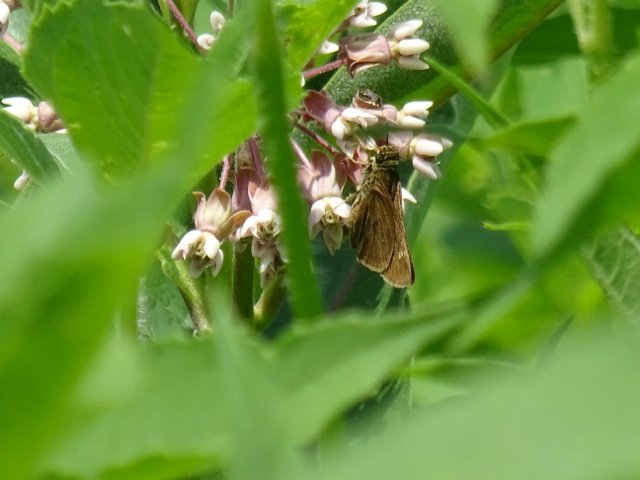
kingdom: Animalia
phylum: Arthropoda
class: Insecta
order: Lepidoptera
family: Hesperiidae
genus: Polites
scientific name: Polites egeremet
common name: Northern Broken-Dash
